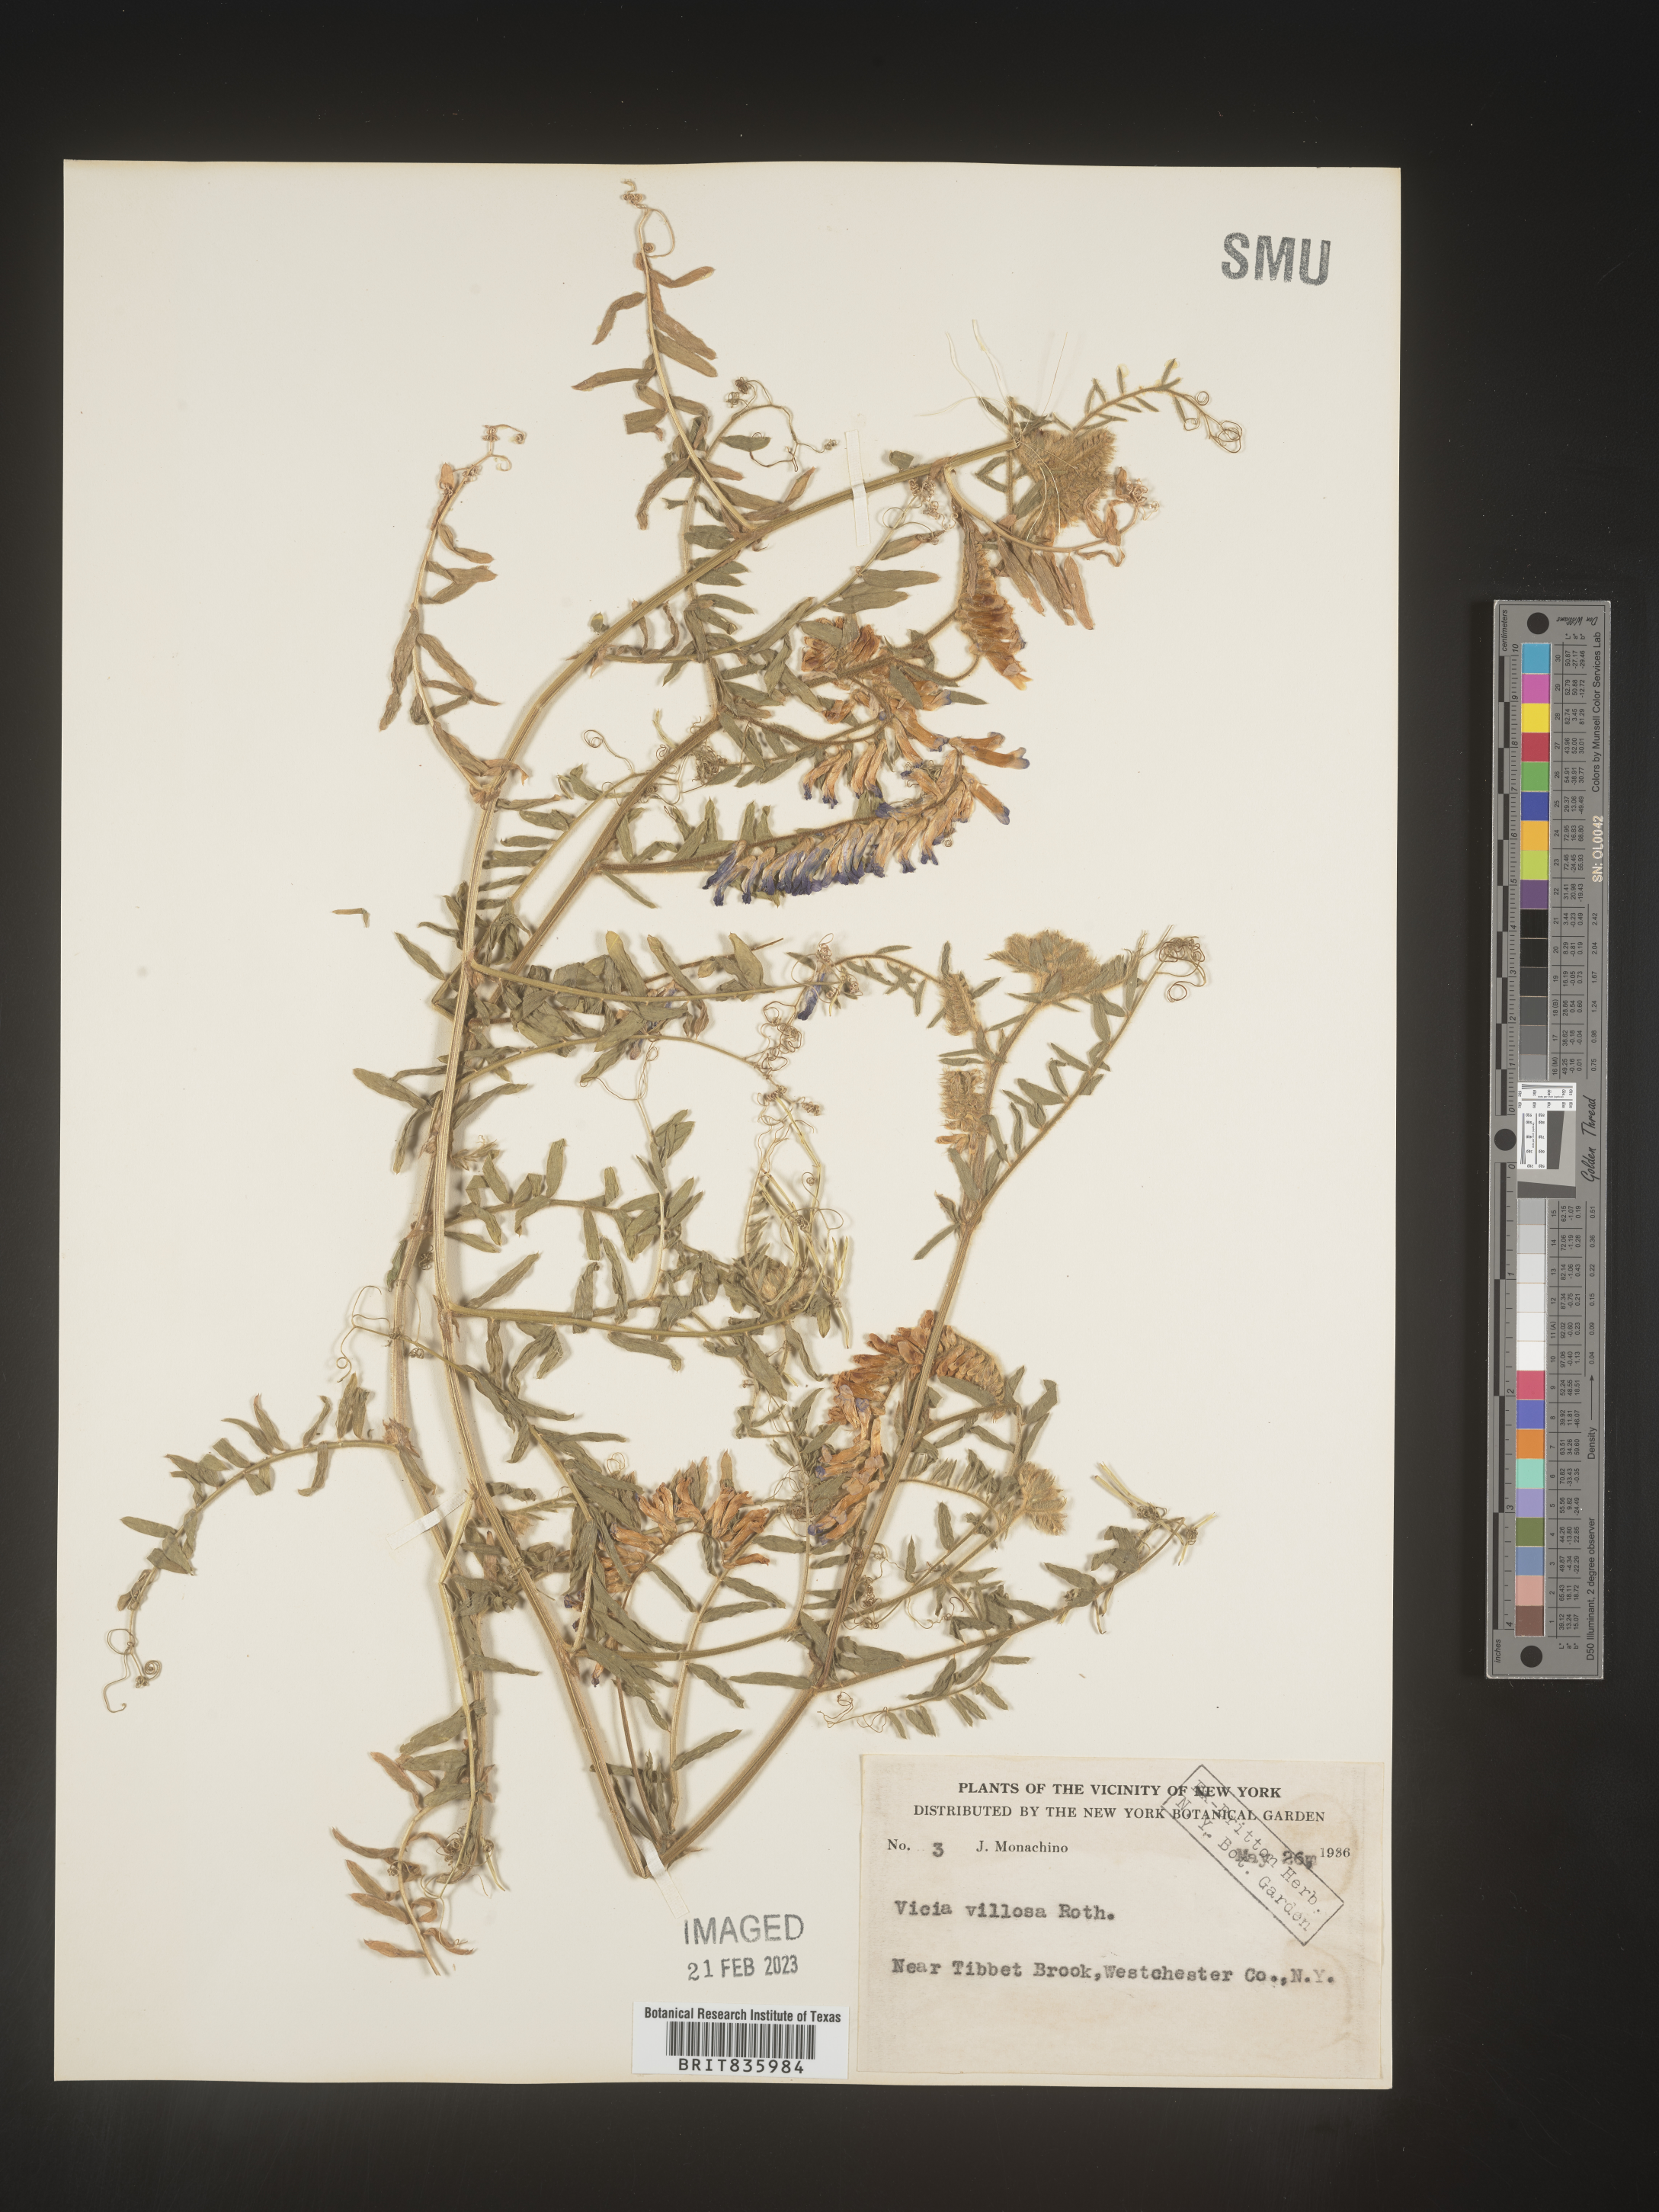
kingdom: Plantae
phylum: Tracheophyta
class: Magnoliopsida
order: Fabales
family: Fabaceae
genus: Vicia
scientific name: Vicia villosa
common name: Fodder vetch
